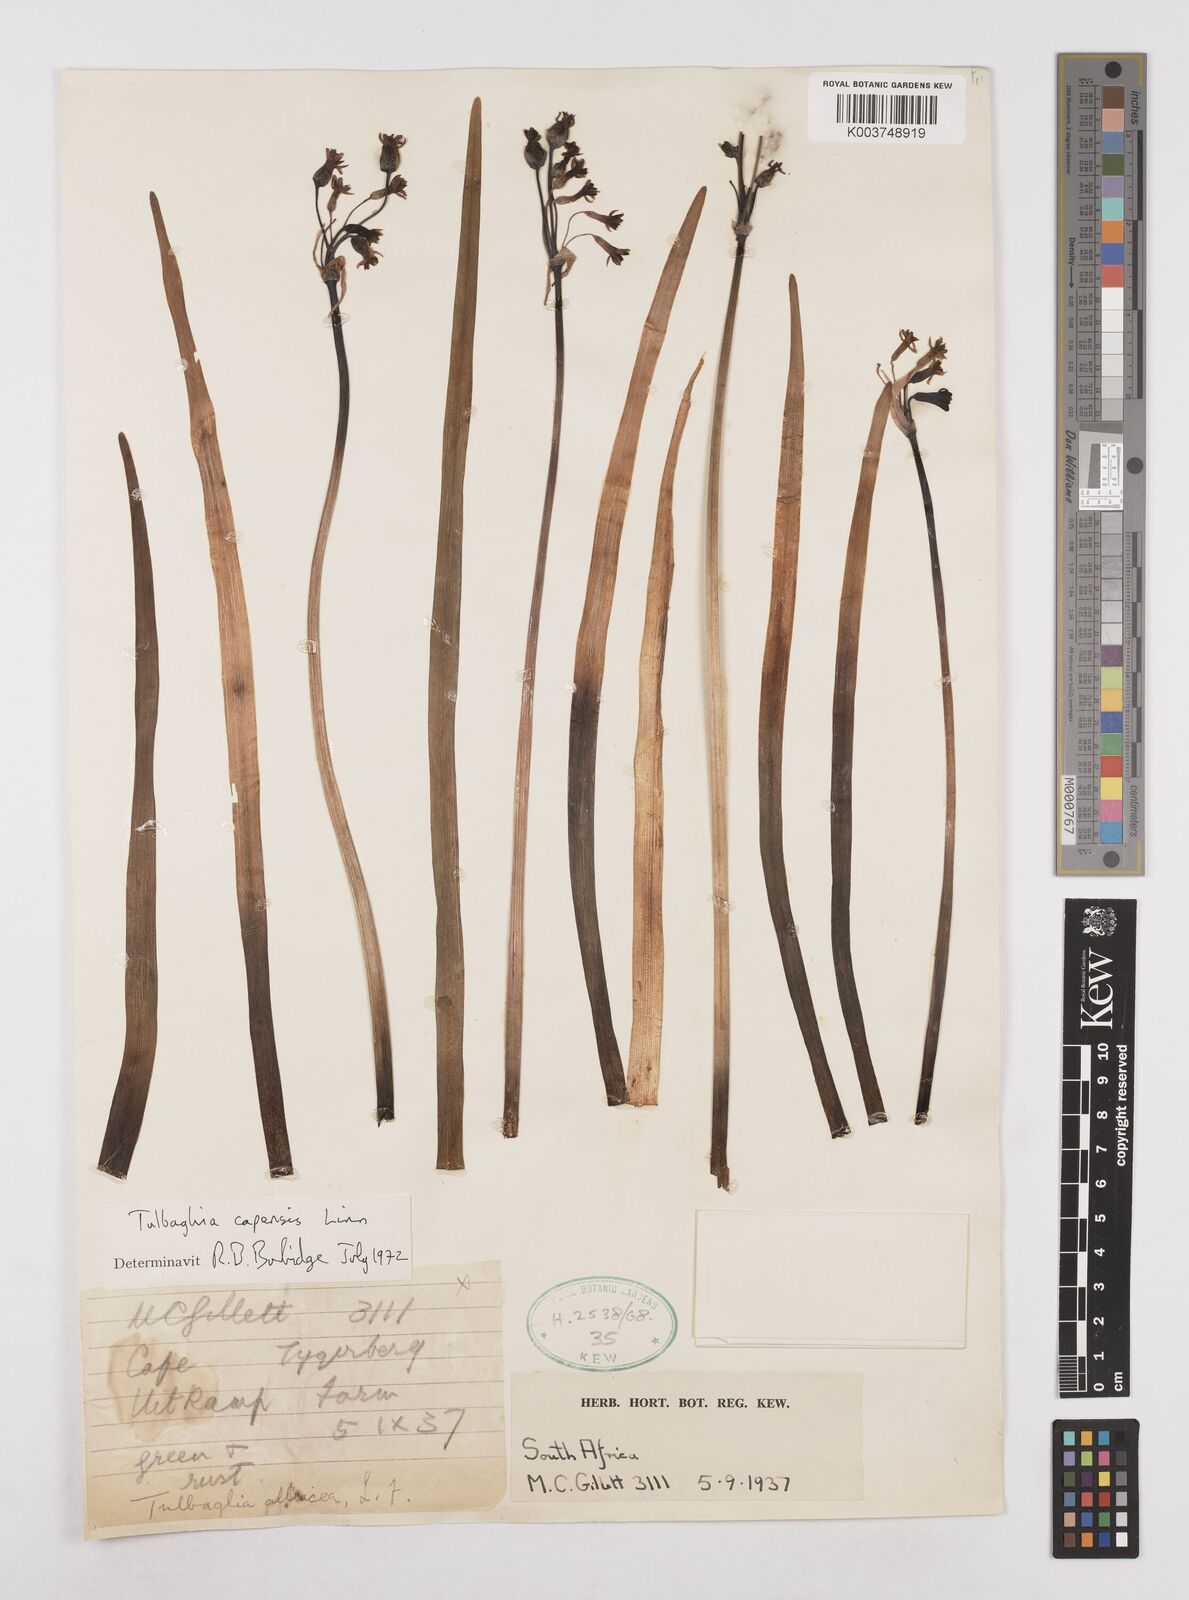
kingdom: Plantae
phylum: Tracheophyta
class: Liliopsida
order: Asparagales
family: Amaryllidaceae
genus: Tulbaghia
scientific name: Tulbaghia capensis
